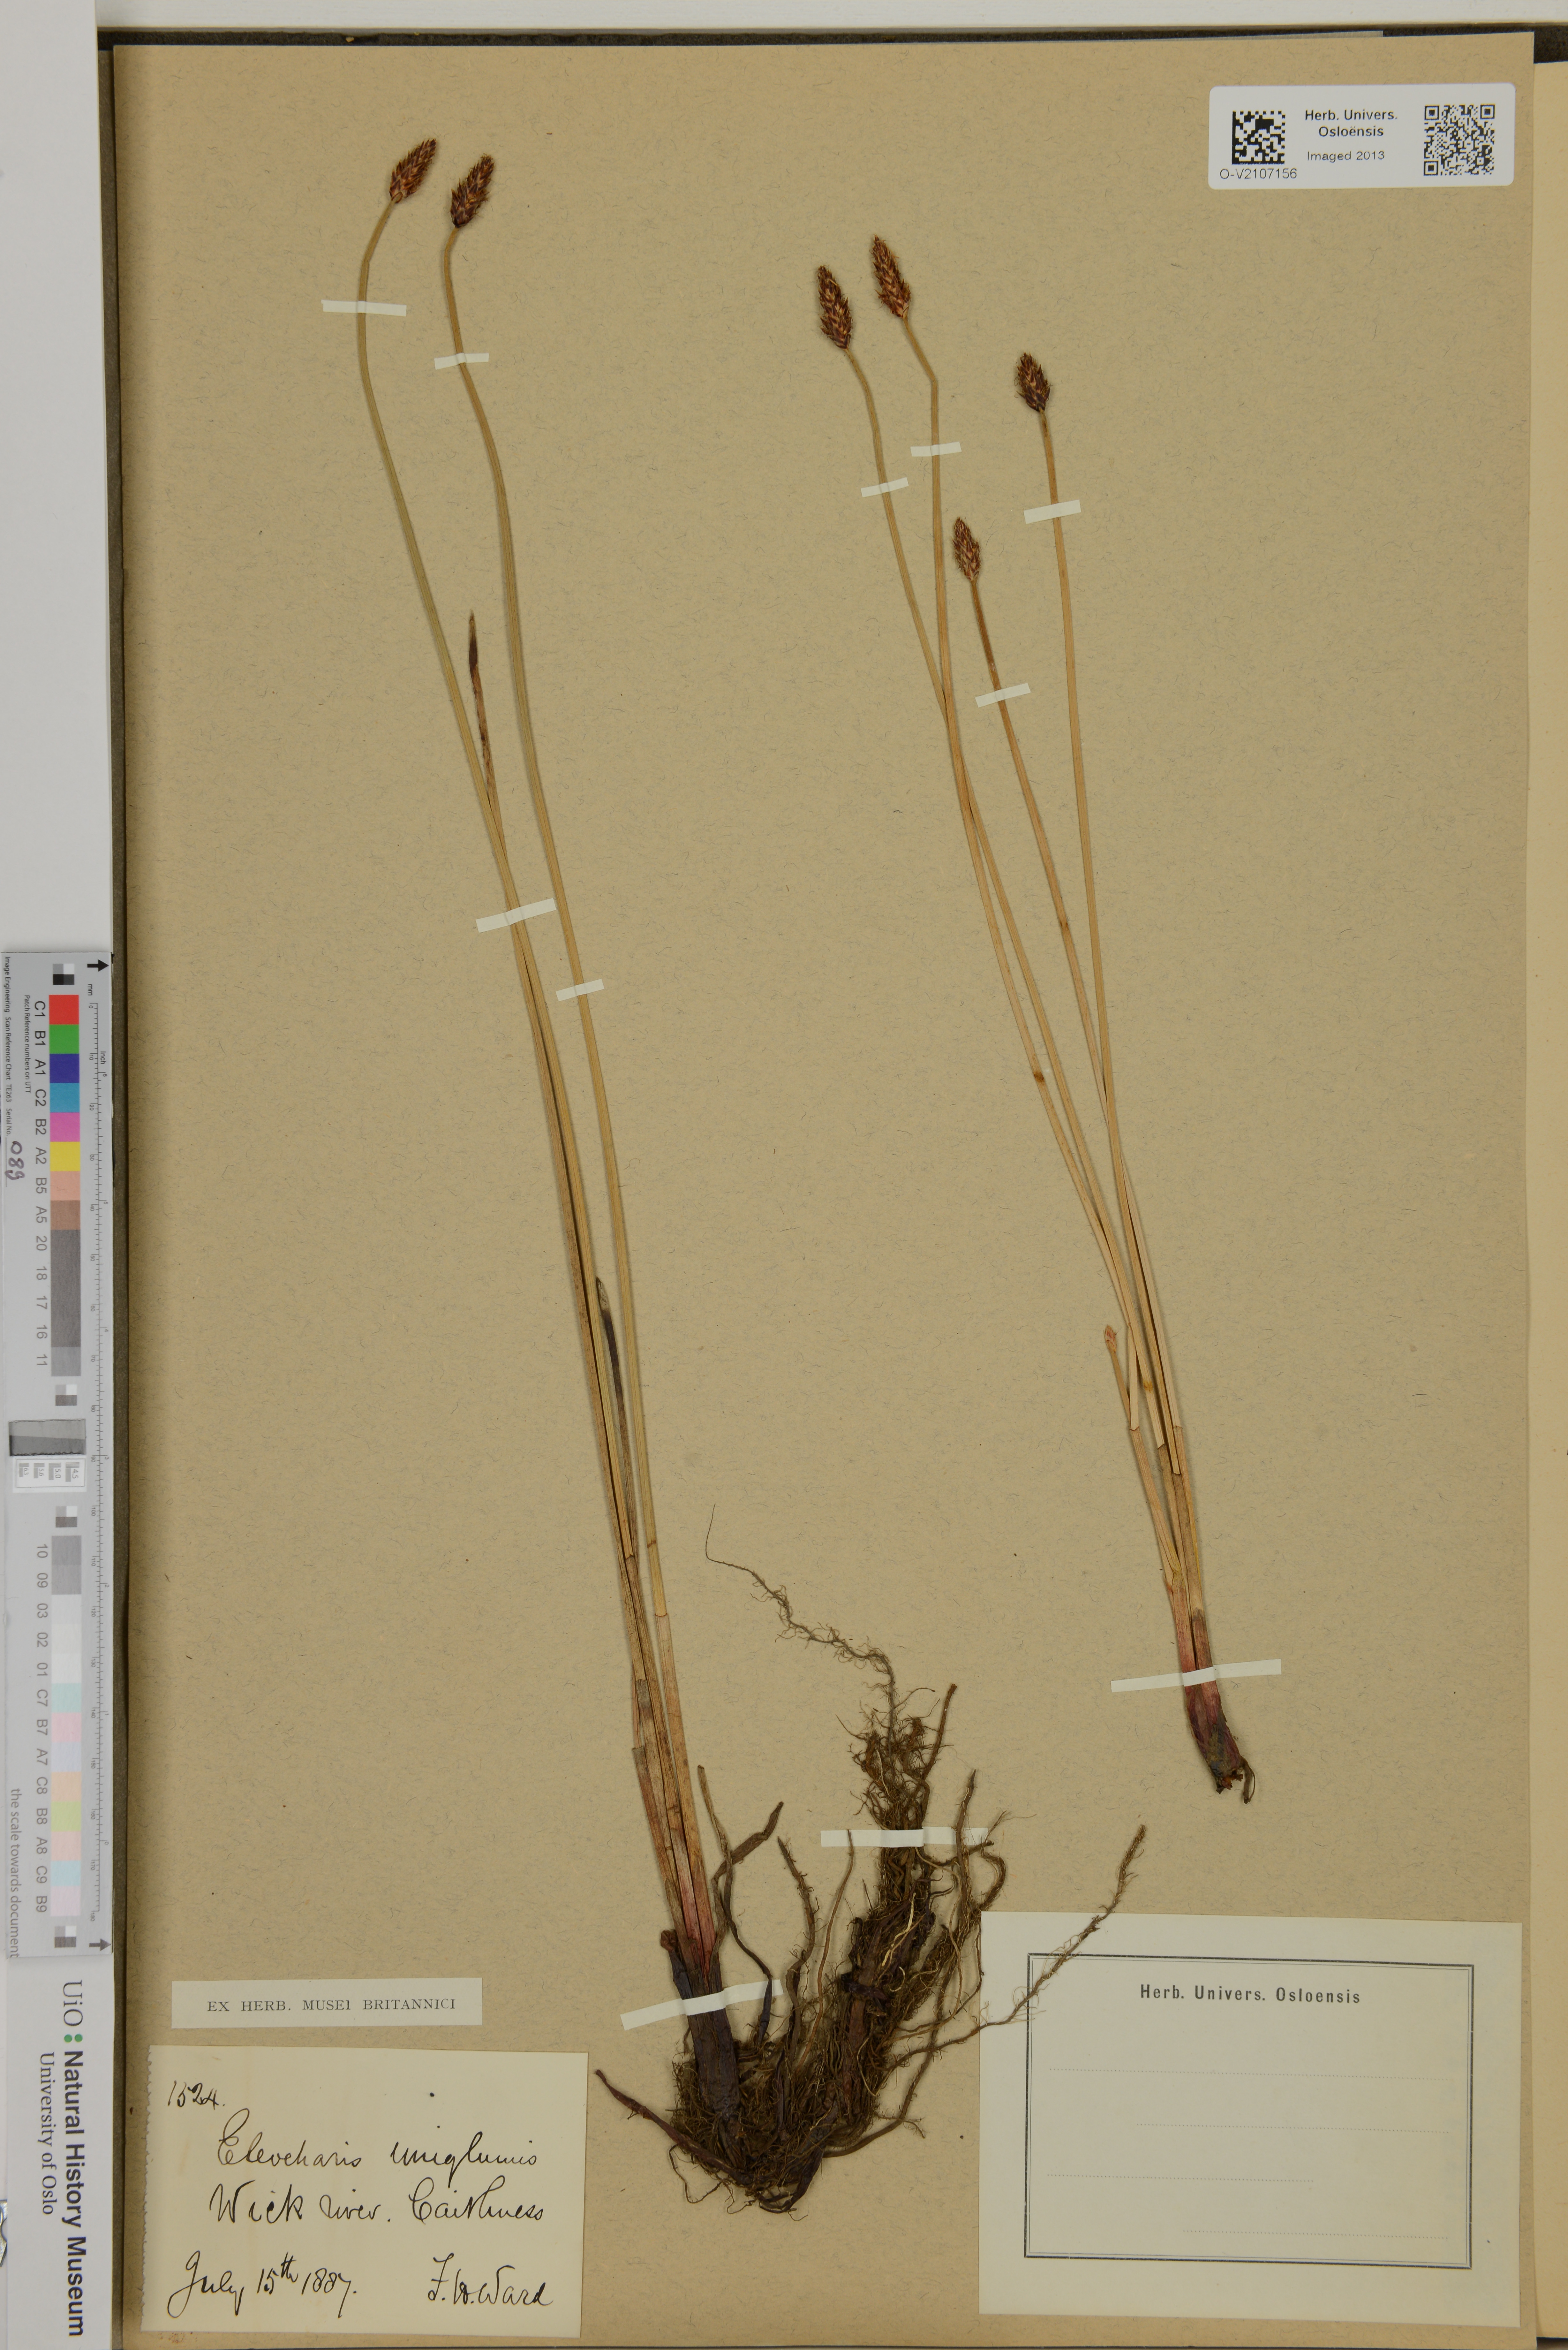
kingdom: Plantae
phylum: Tracheophyta
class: Liliopsida
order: Poales
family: Cyperaceae
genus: Eleocharis
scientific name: Eleocharis uniglumis
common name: Slender spike-rush
